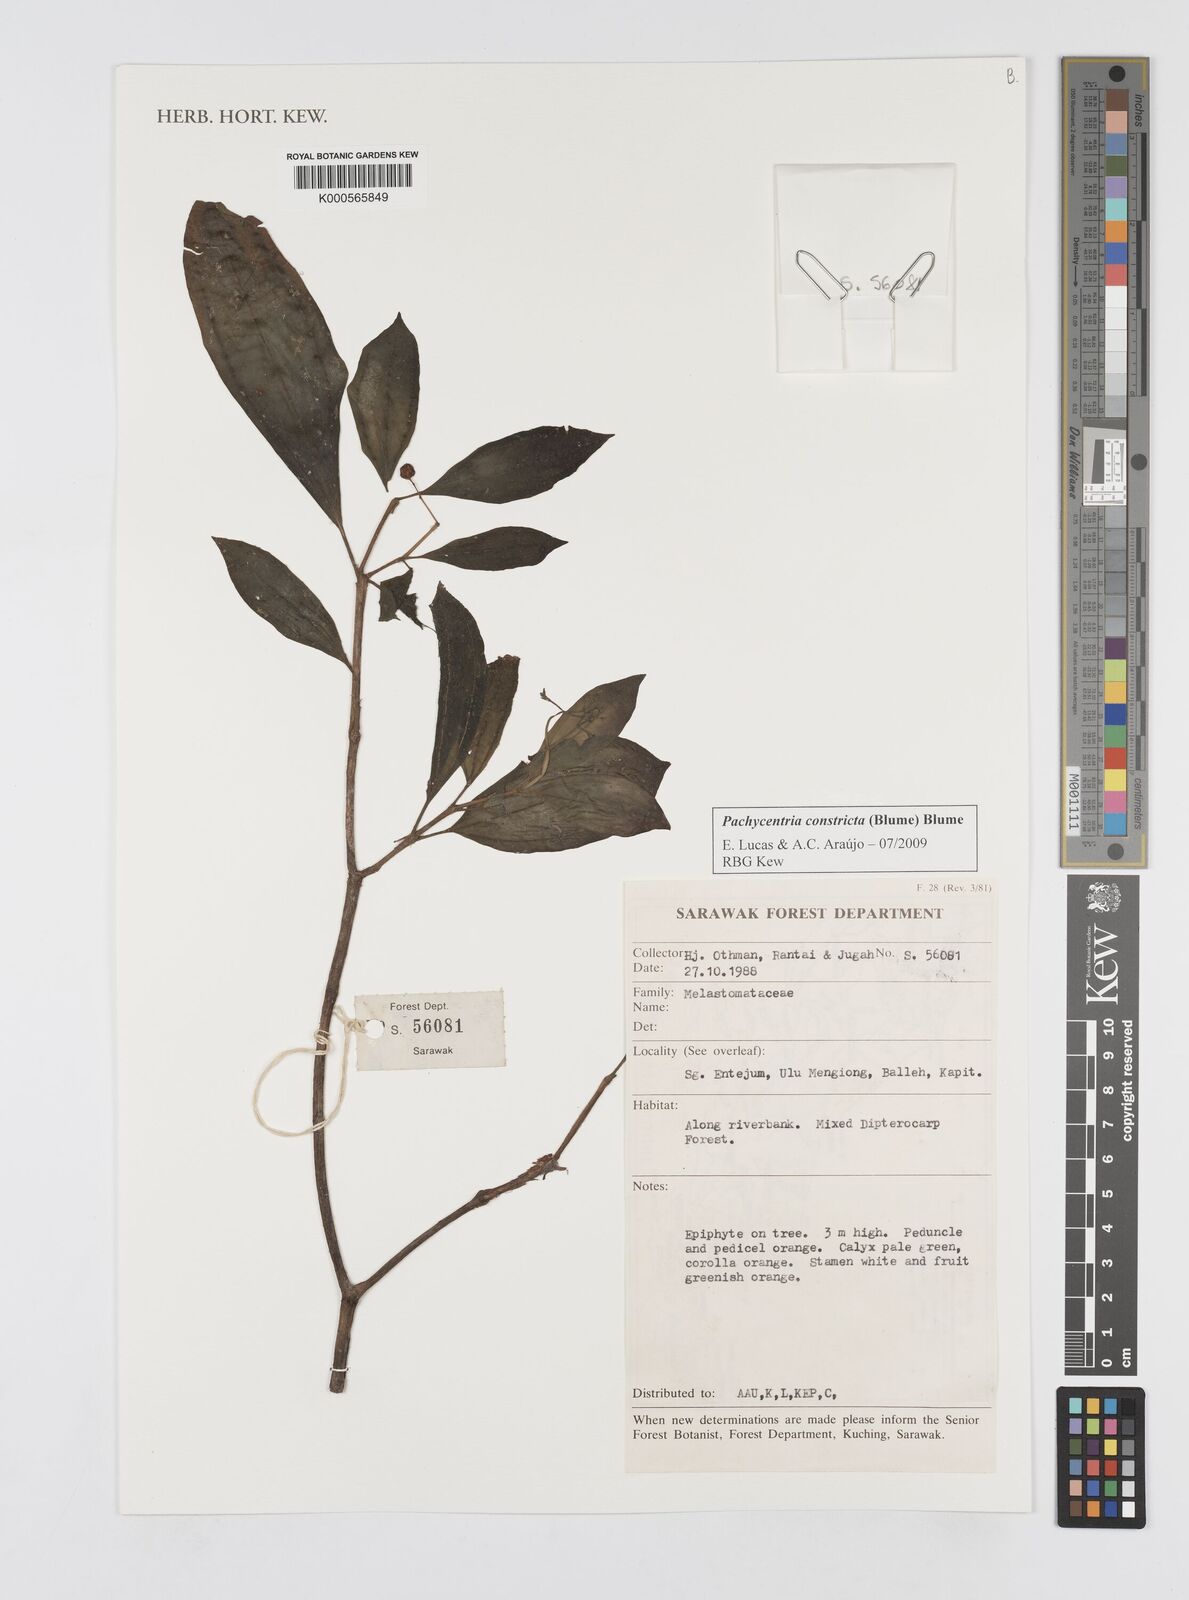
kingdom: Plantae
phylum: Tracheophyta
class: Magnoliopsida
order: Myrtales
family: Melastomataceae
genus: Pachycentria
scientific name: Pachycentria constricta
